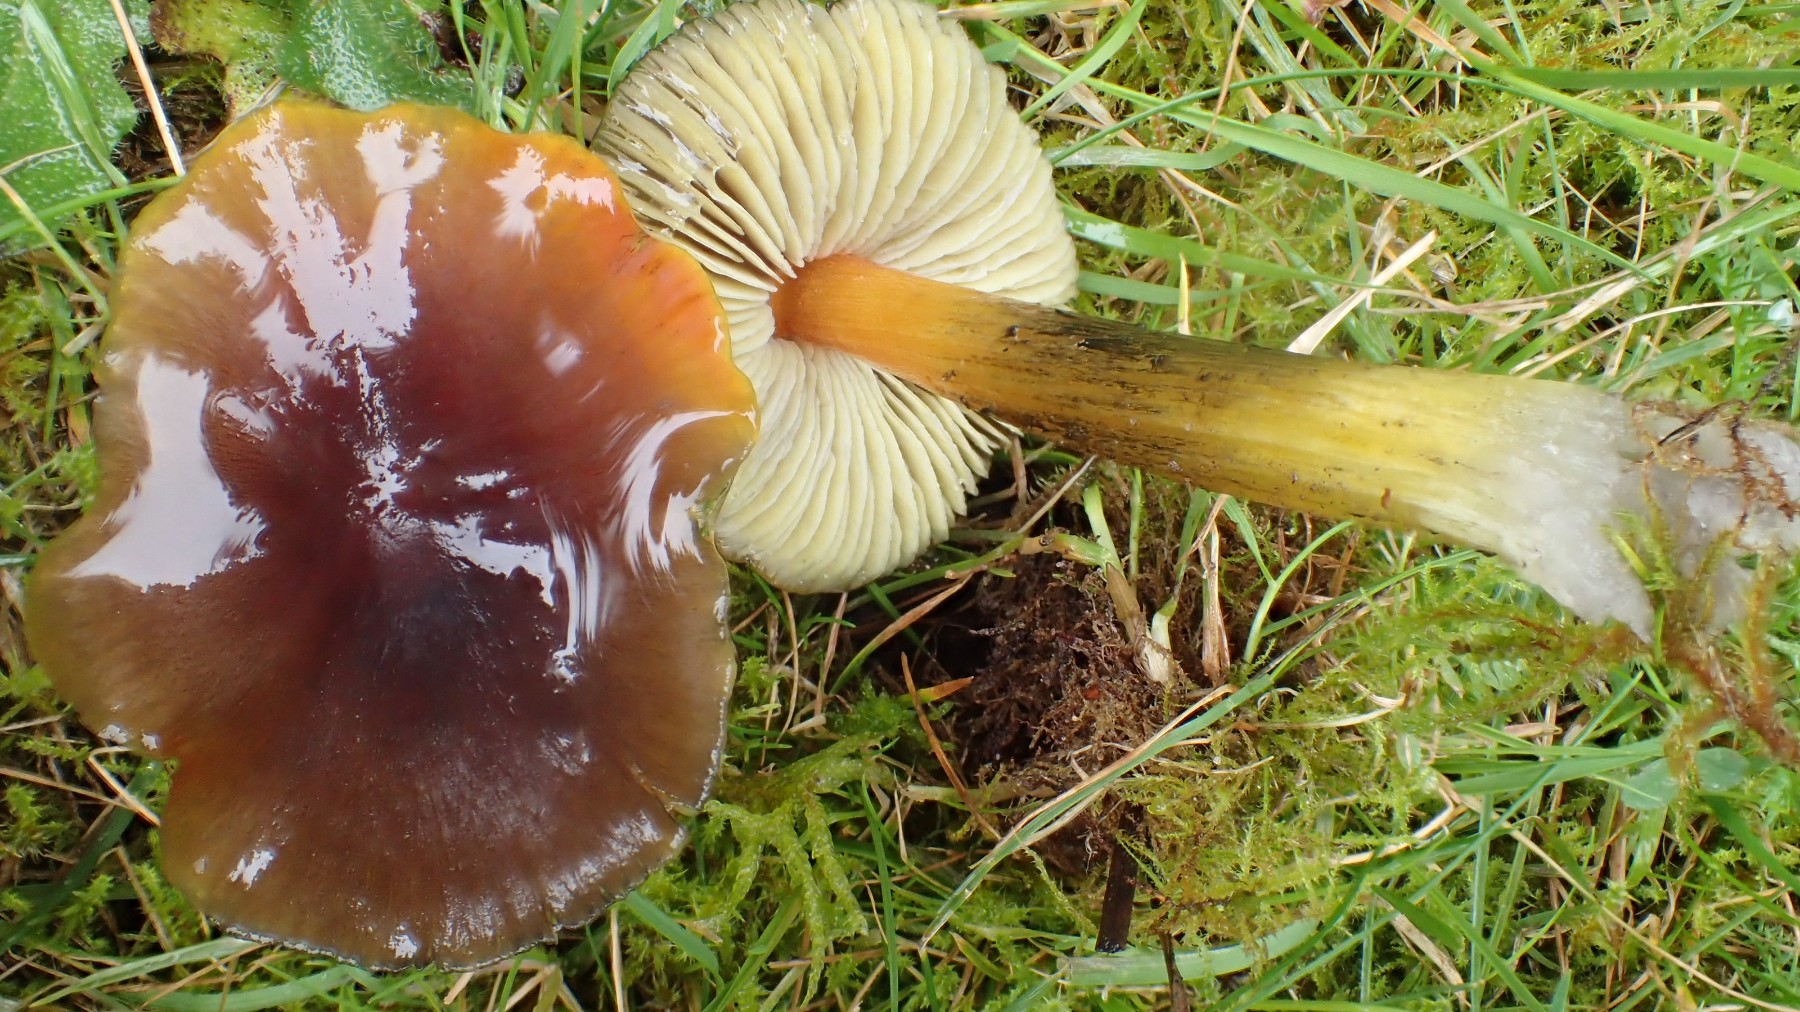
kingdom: Fungi
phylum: Basidiomycota
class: Agaricomycetes
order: Agaricales
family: Hygrophoraceae
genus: Hygrocybe
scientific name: Hygrocybe conica
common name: kegle-vokshat
